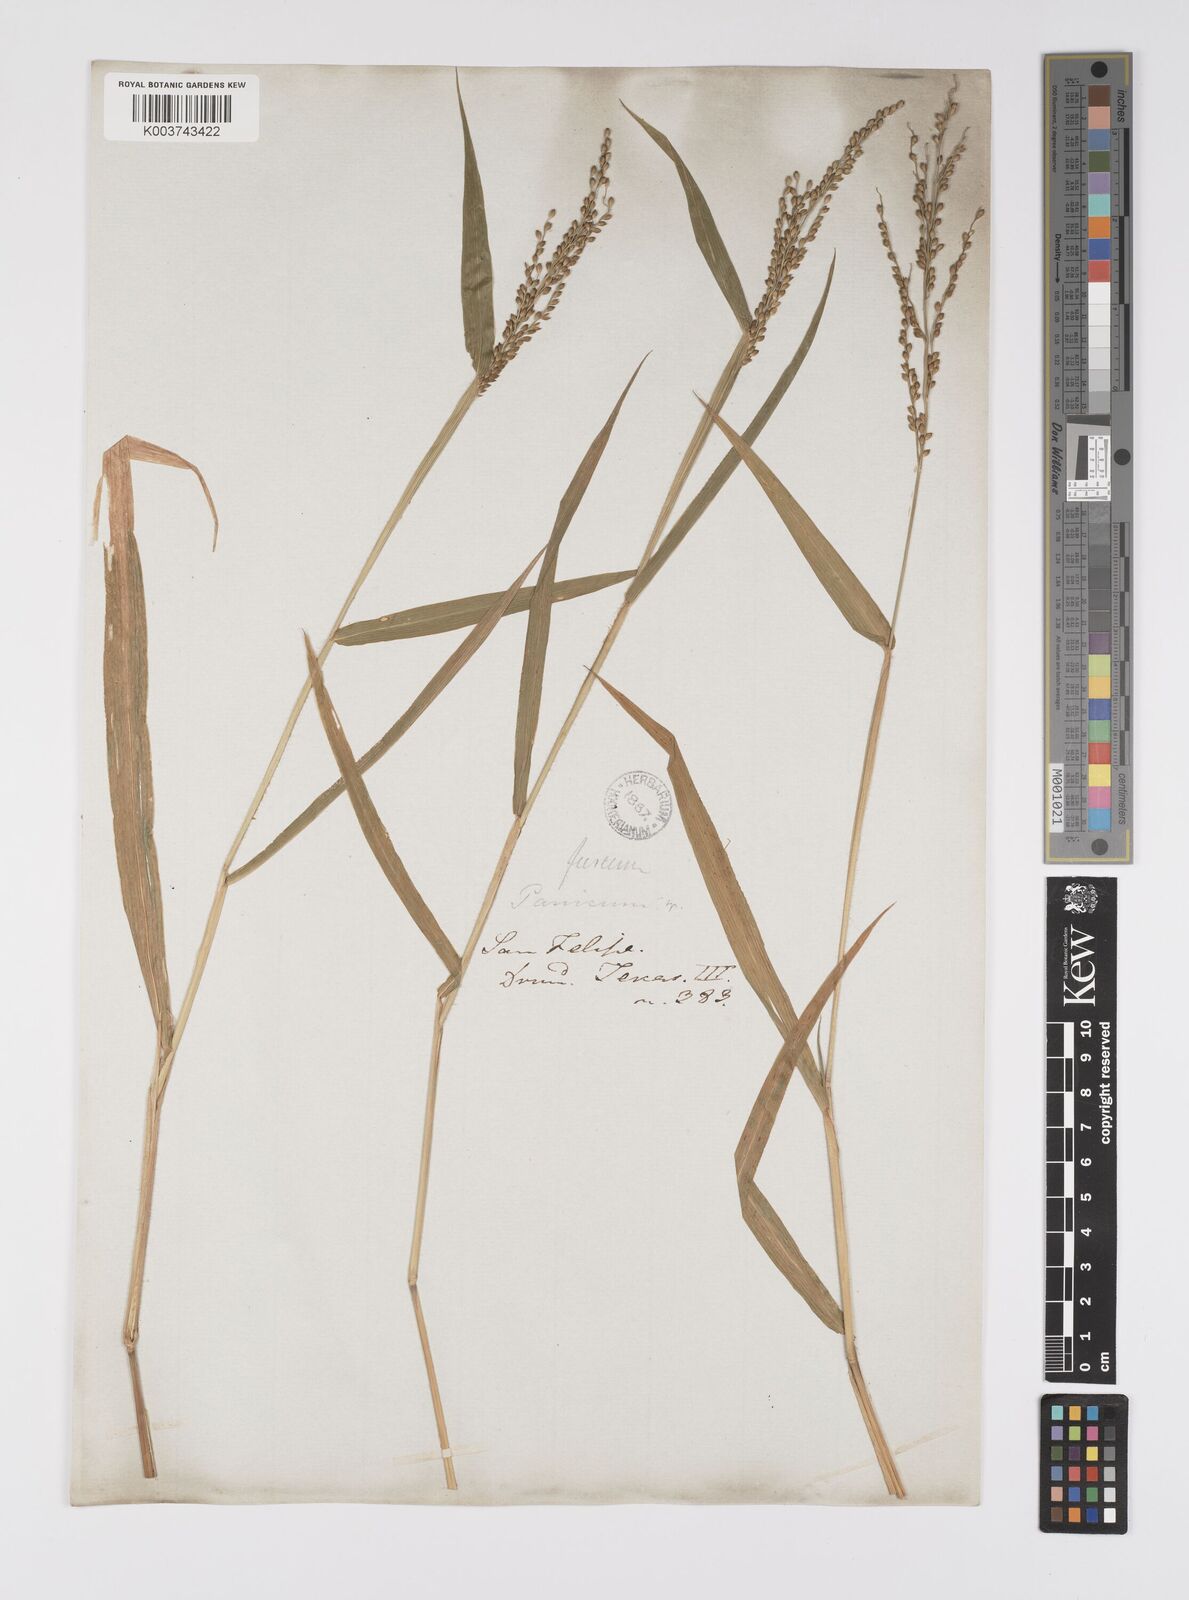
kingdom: Plantae
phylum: Tracheophyta
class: Liliopsida
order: Poales
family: Poaceae
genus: Urochloa
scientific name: Urochloa fusca
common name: Browntop signal grass
